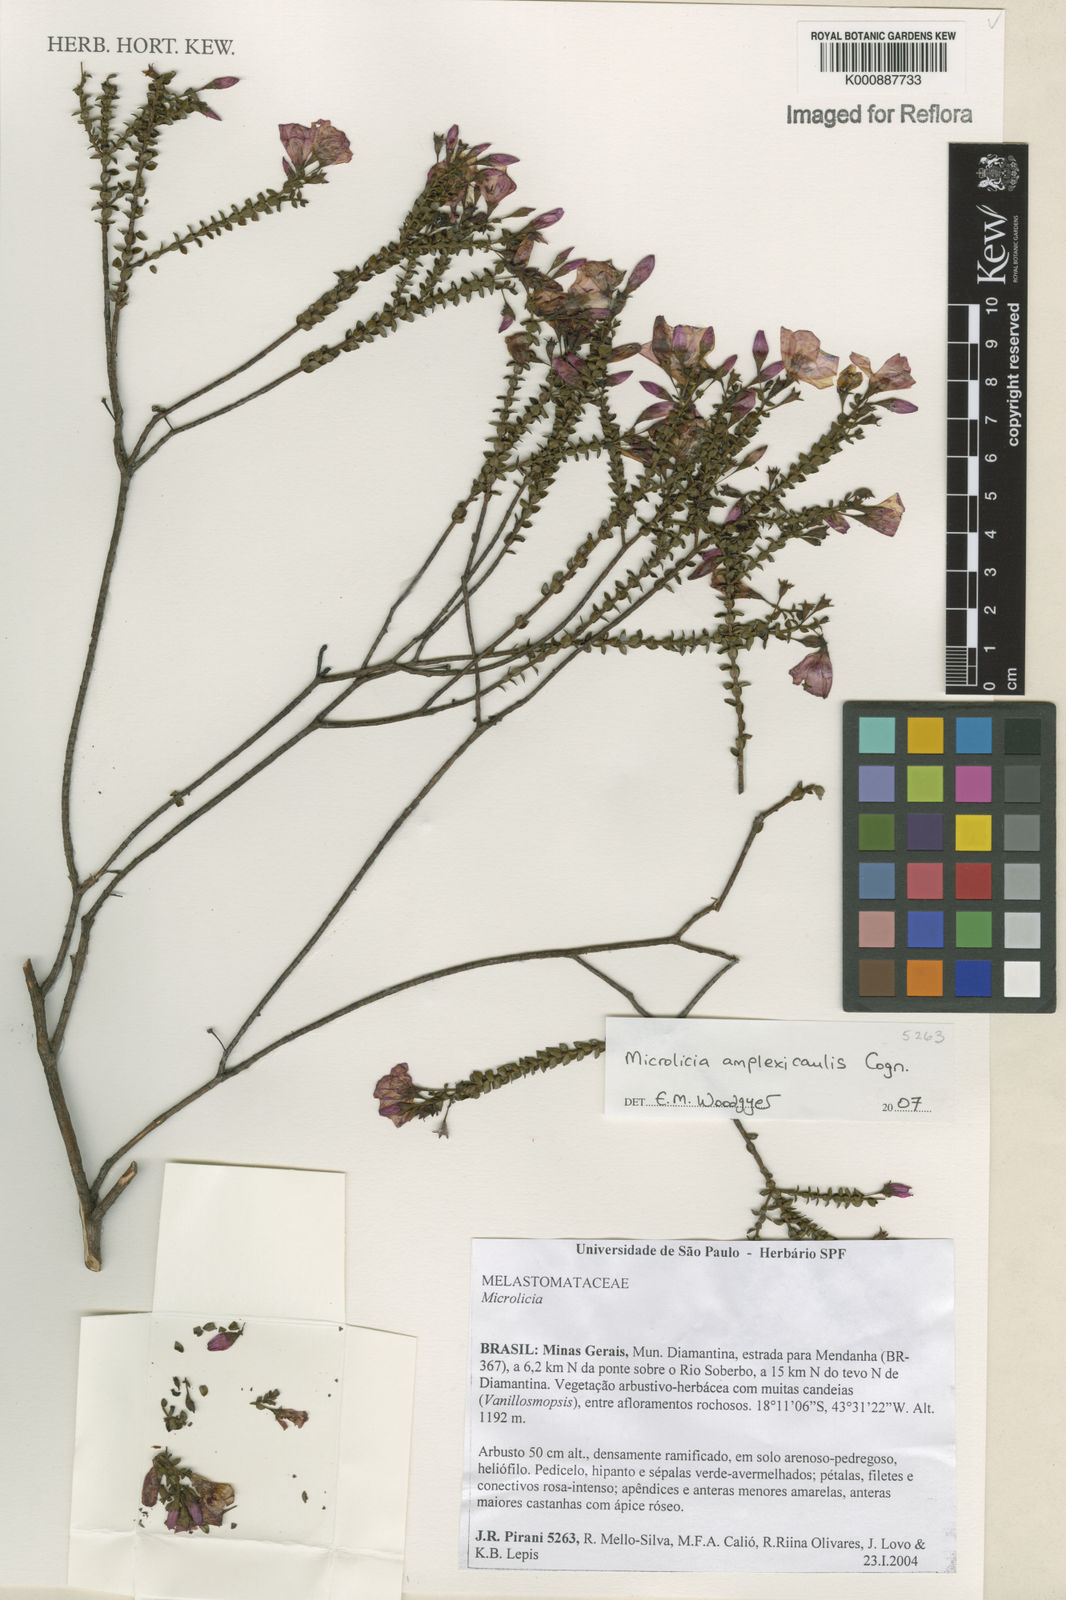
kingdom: Plantae
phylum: Tracheophyta
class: Magnoliopsida
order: Myrtales
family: Melastomataceae
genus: Microlicia
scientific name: Microlicia amplexicaulis
